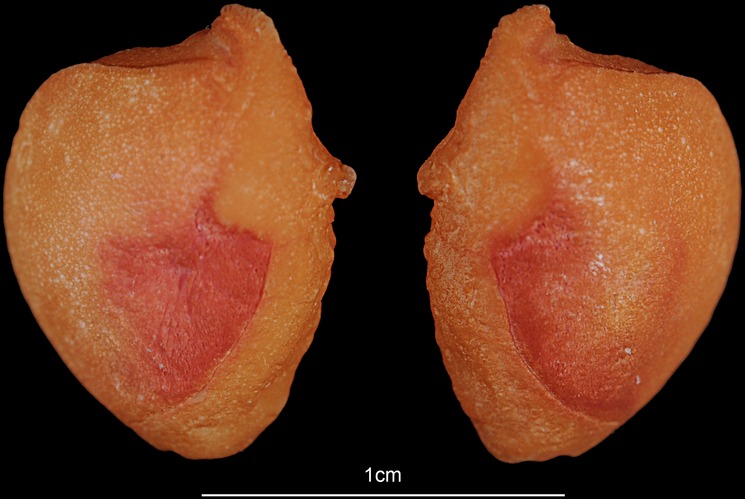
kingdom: Animalia
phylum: Chordata
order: Siluriformes
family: Ariidae
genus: Netuma
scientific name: Netuma thalassina
